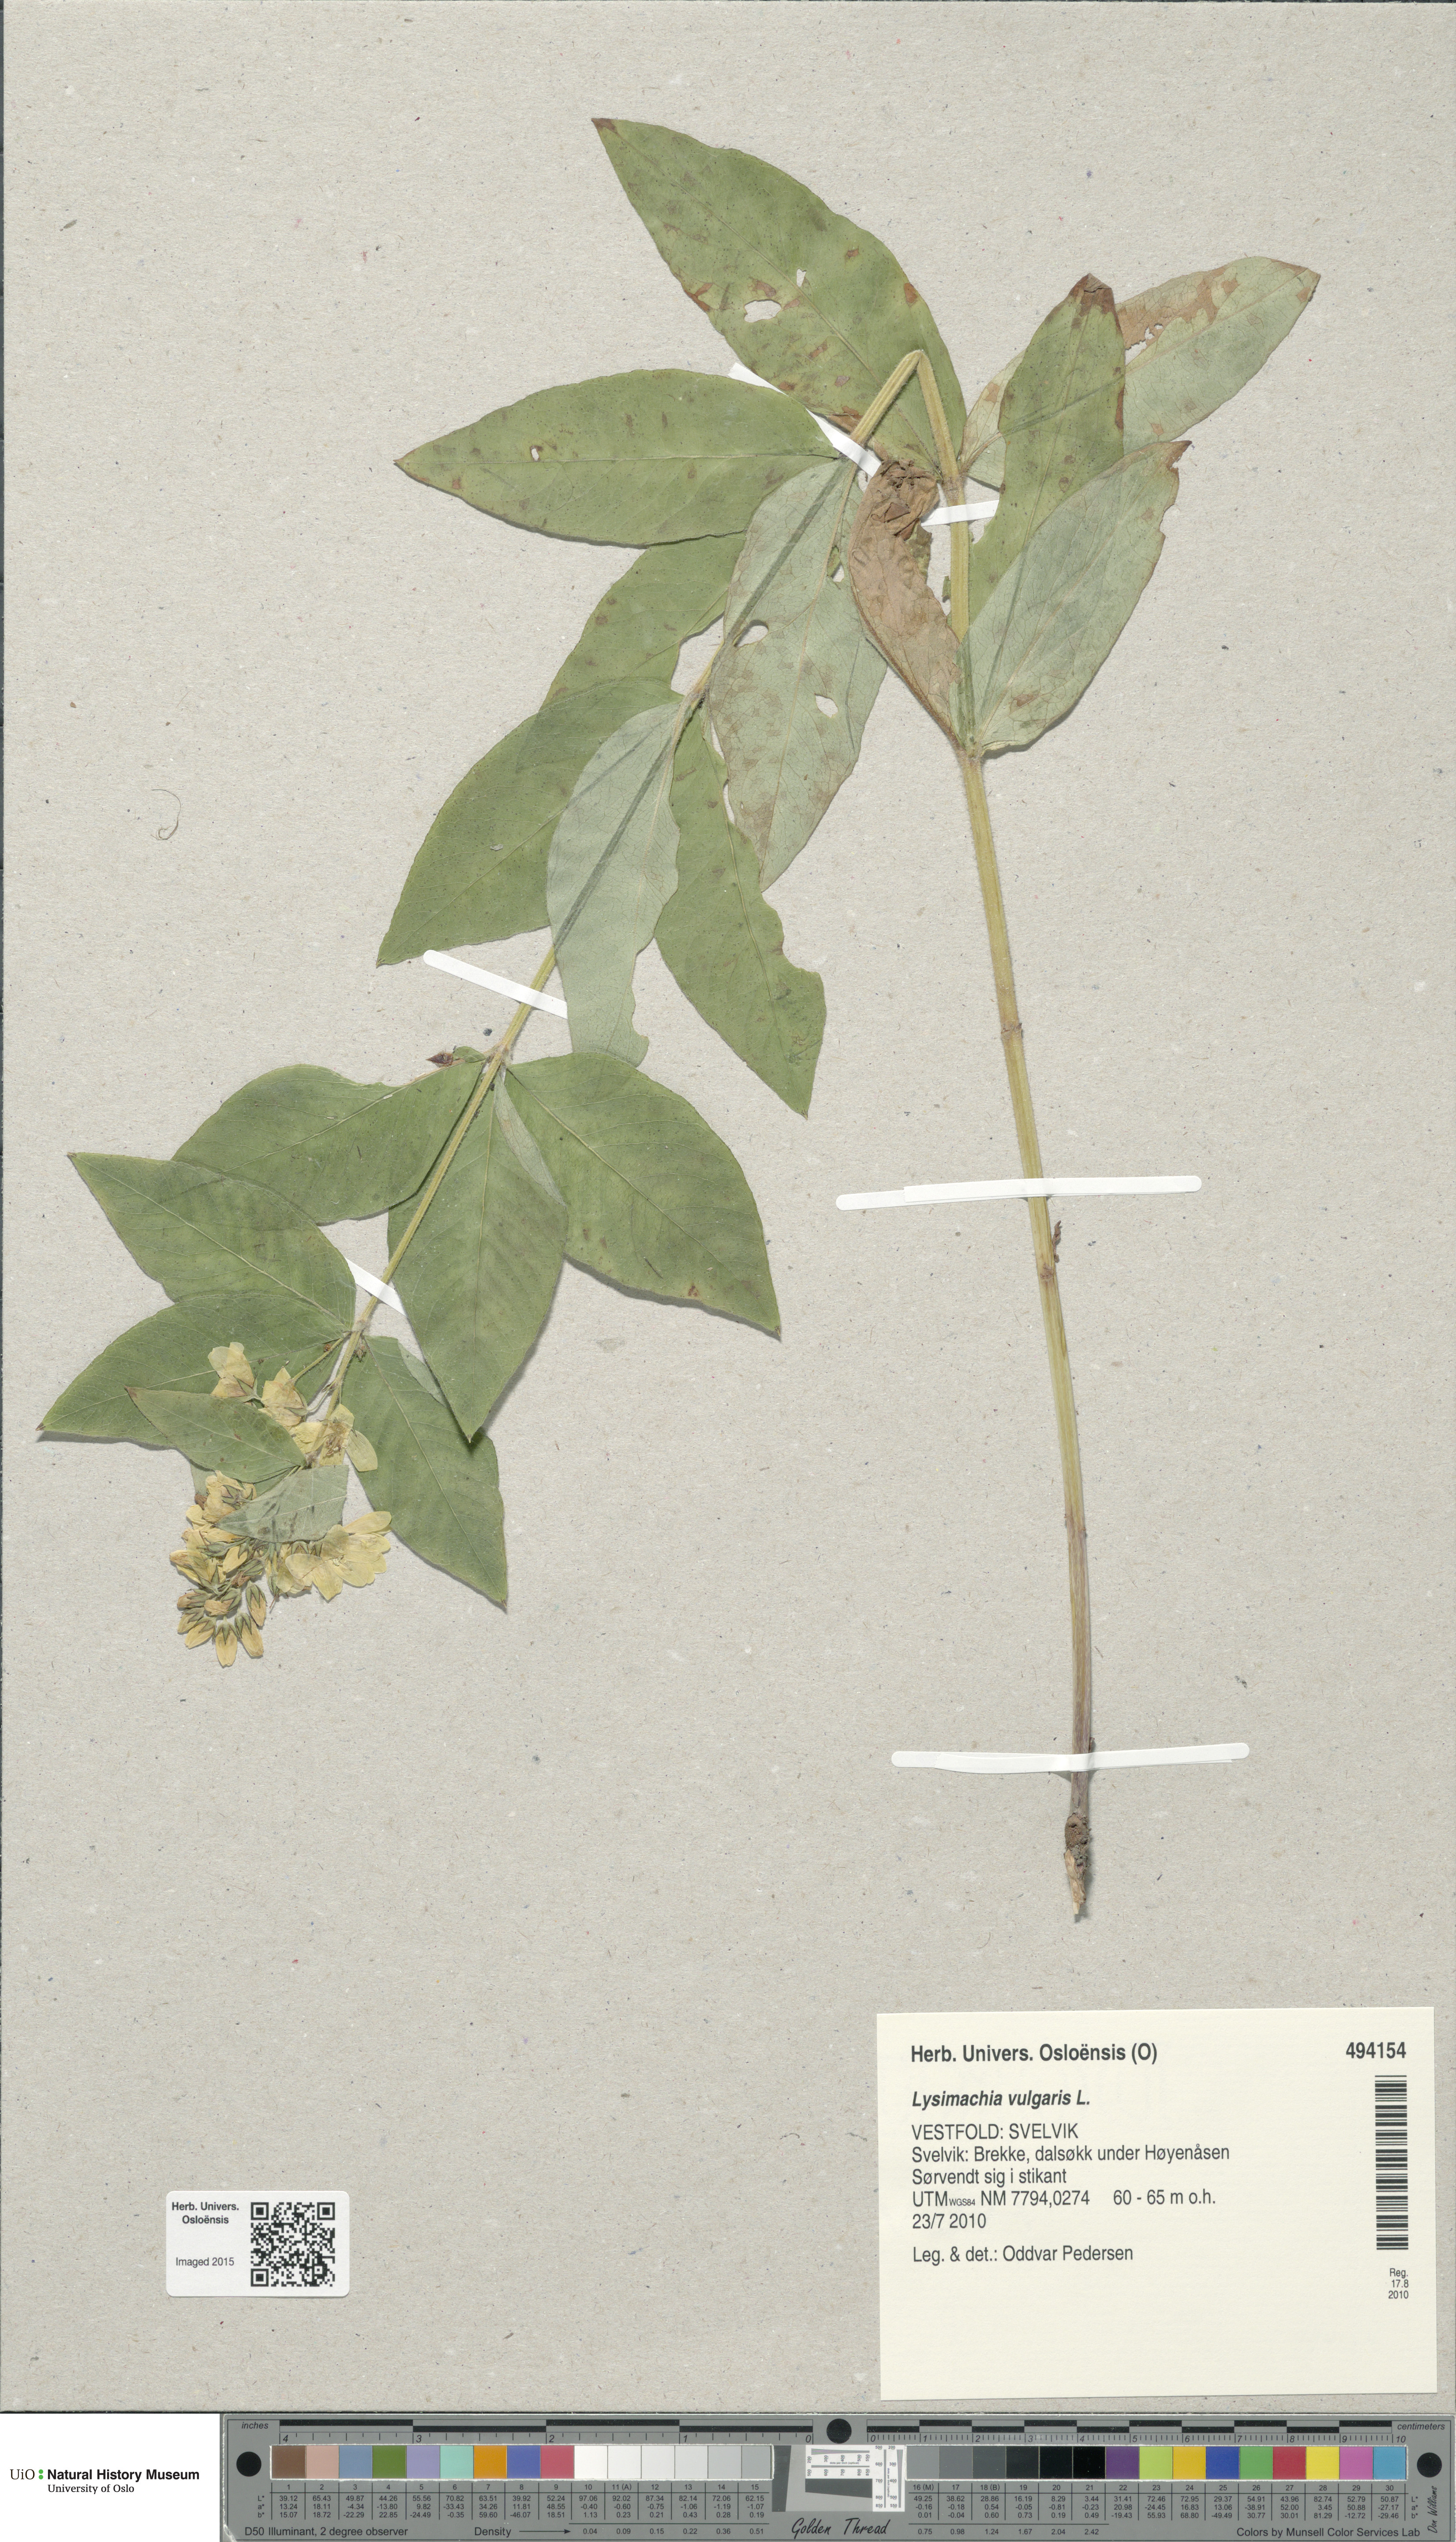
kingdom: Plantae
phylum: Tracheophyta
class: Magnoliopsida
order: Ericales
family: Primulaceae
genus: Lysimachia
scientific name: Lysimachia vulgaris
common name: Yellow loosestrife
